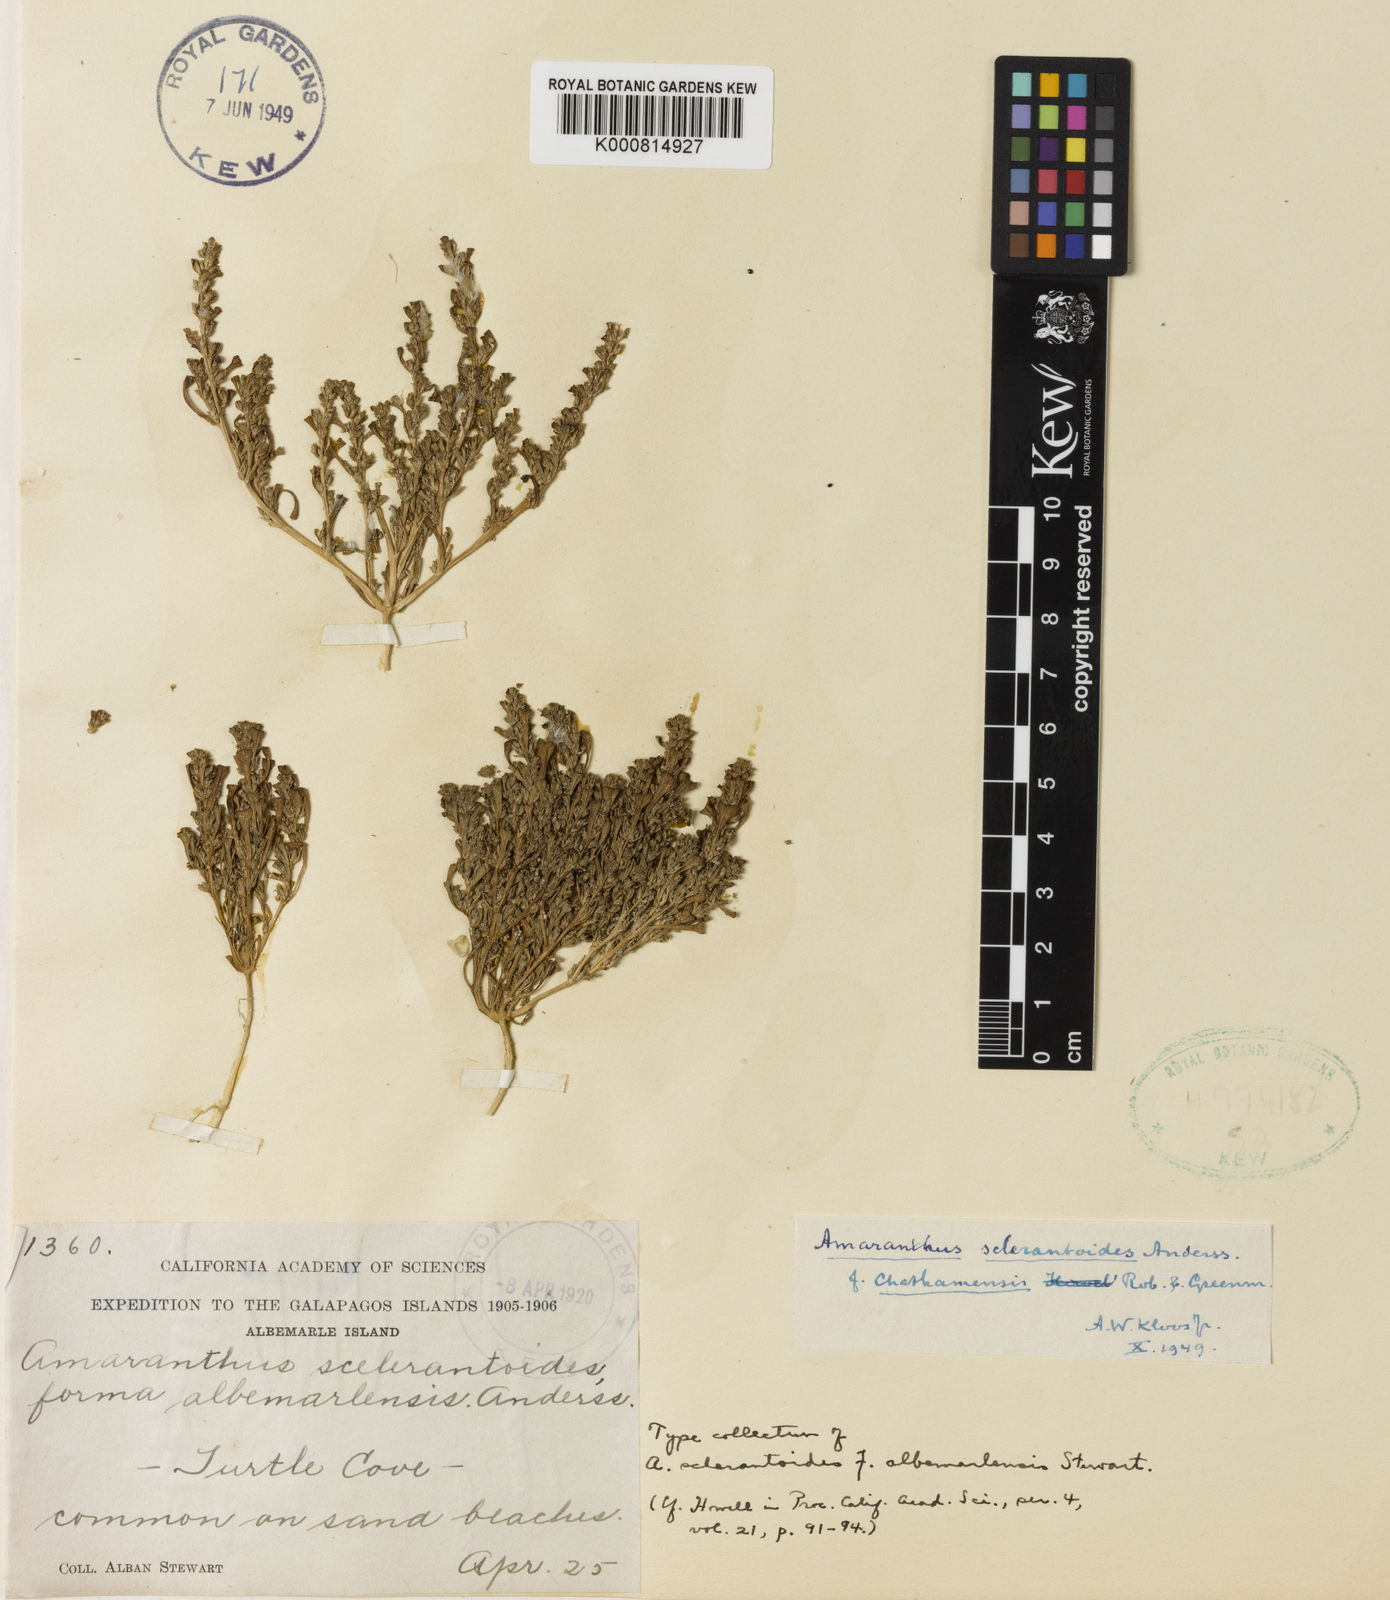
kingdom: Plantae
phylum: Tracheophyta
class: Magnoliopsida
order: Caryophyllales
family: Amaranthaceae
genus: Amaranthus
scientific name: Amaranthus
